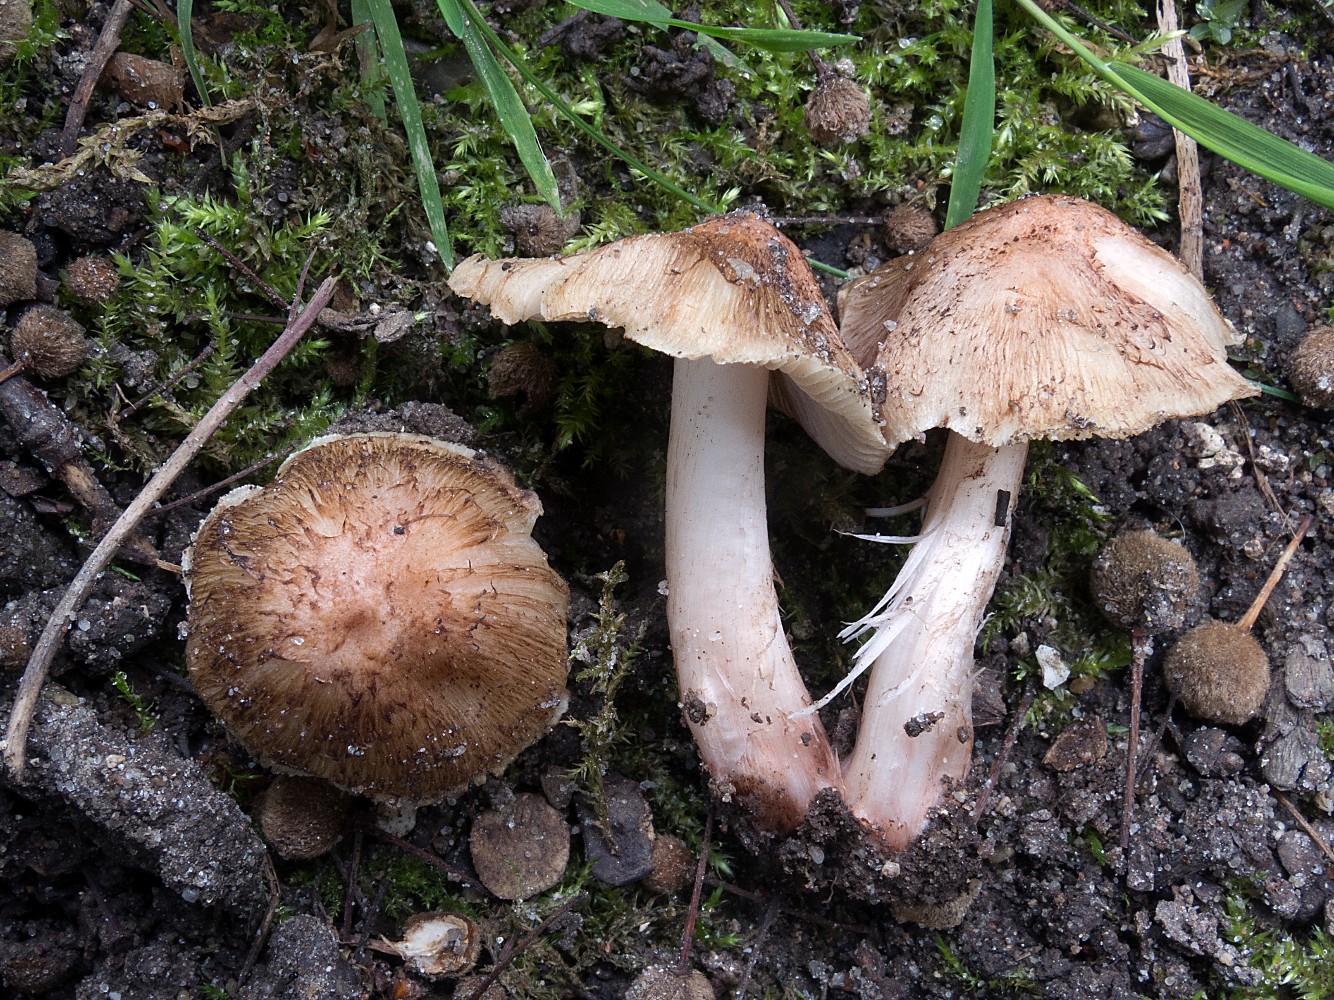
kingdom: Fungi
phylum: Basidiomycota
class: Agaricomycetes
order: Agaricales
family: Inocybaceae
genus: Inosperma
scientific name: Inosperma adaequatum
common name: vinrød trævlhat
